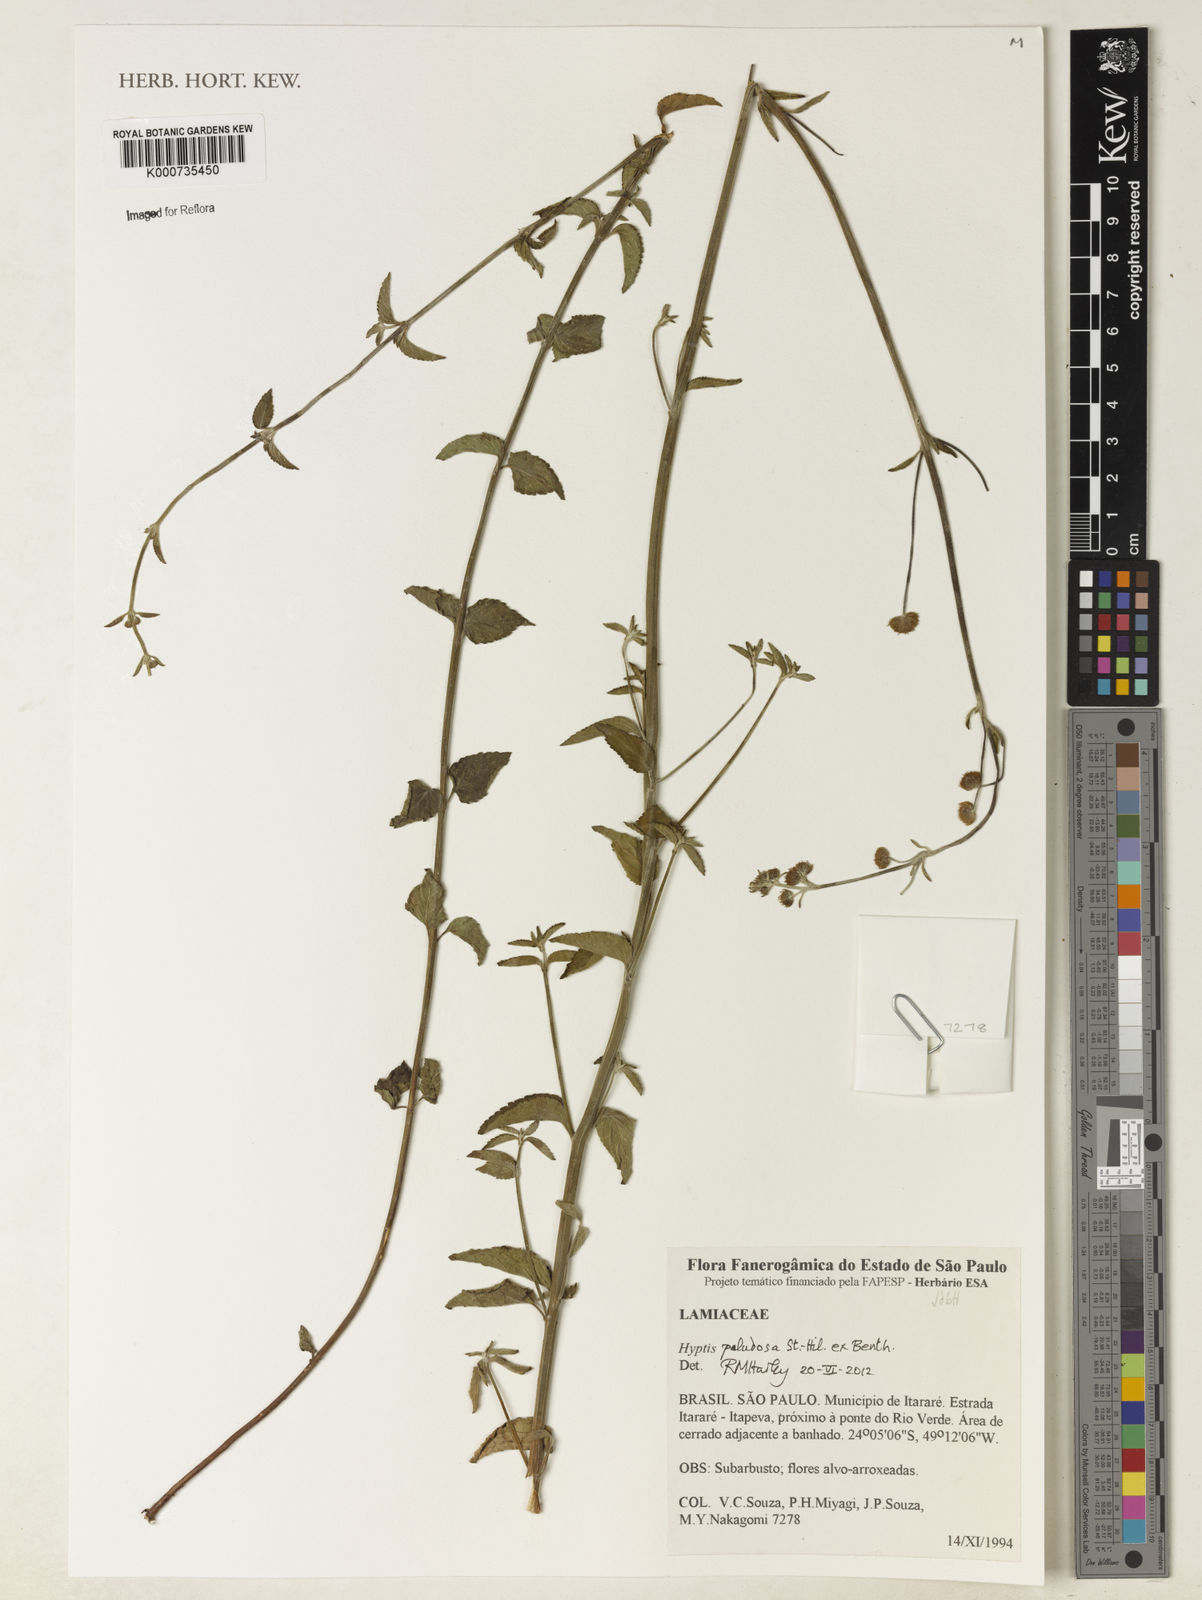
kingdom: Plantae
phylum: Tracheophyta
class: Magnoliopsida
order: Lamiales
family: Lamiaceae
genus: Hyptis
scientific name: Hyptis paludosa
